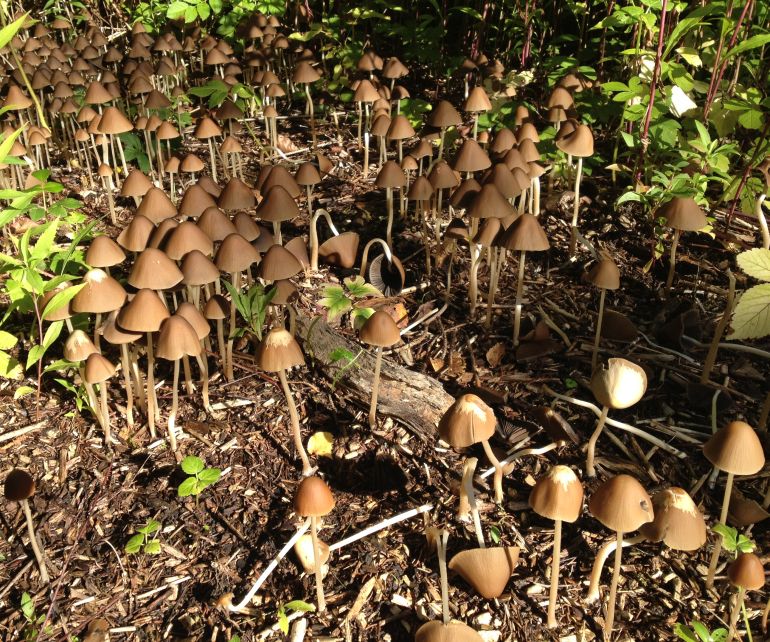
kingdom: Fungi
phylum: Basidiomycota
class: Agaricomycetes
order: Agaricales
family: Psathyrellaceae
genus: Parasola
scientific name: Parasola conopilea
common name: kegle-hjulhat
